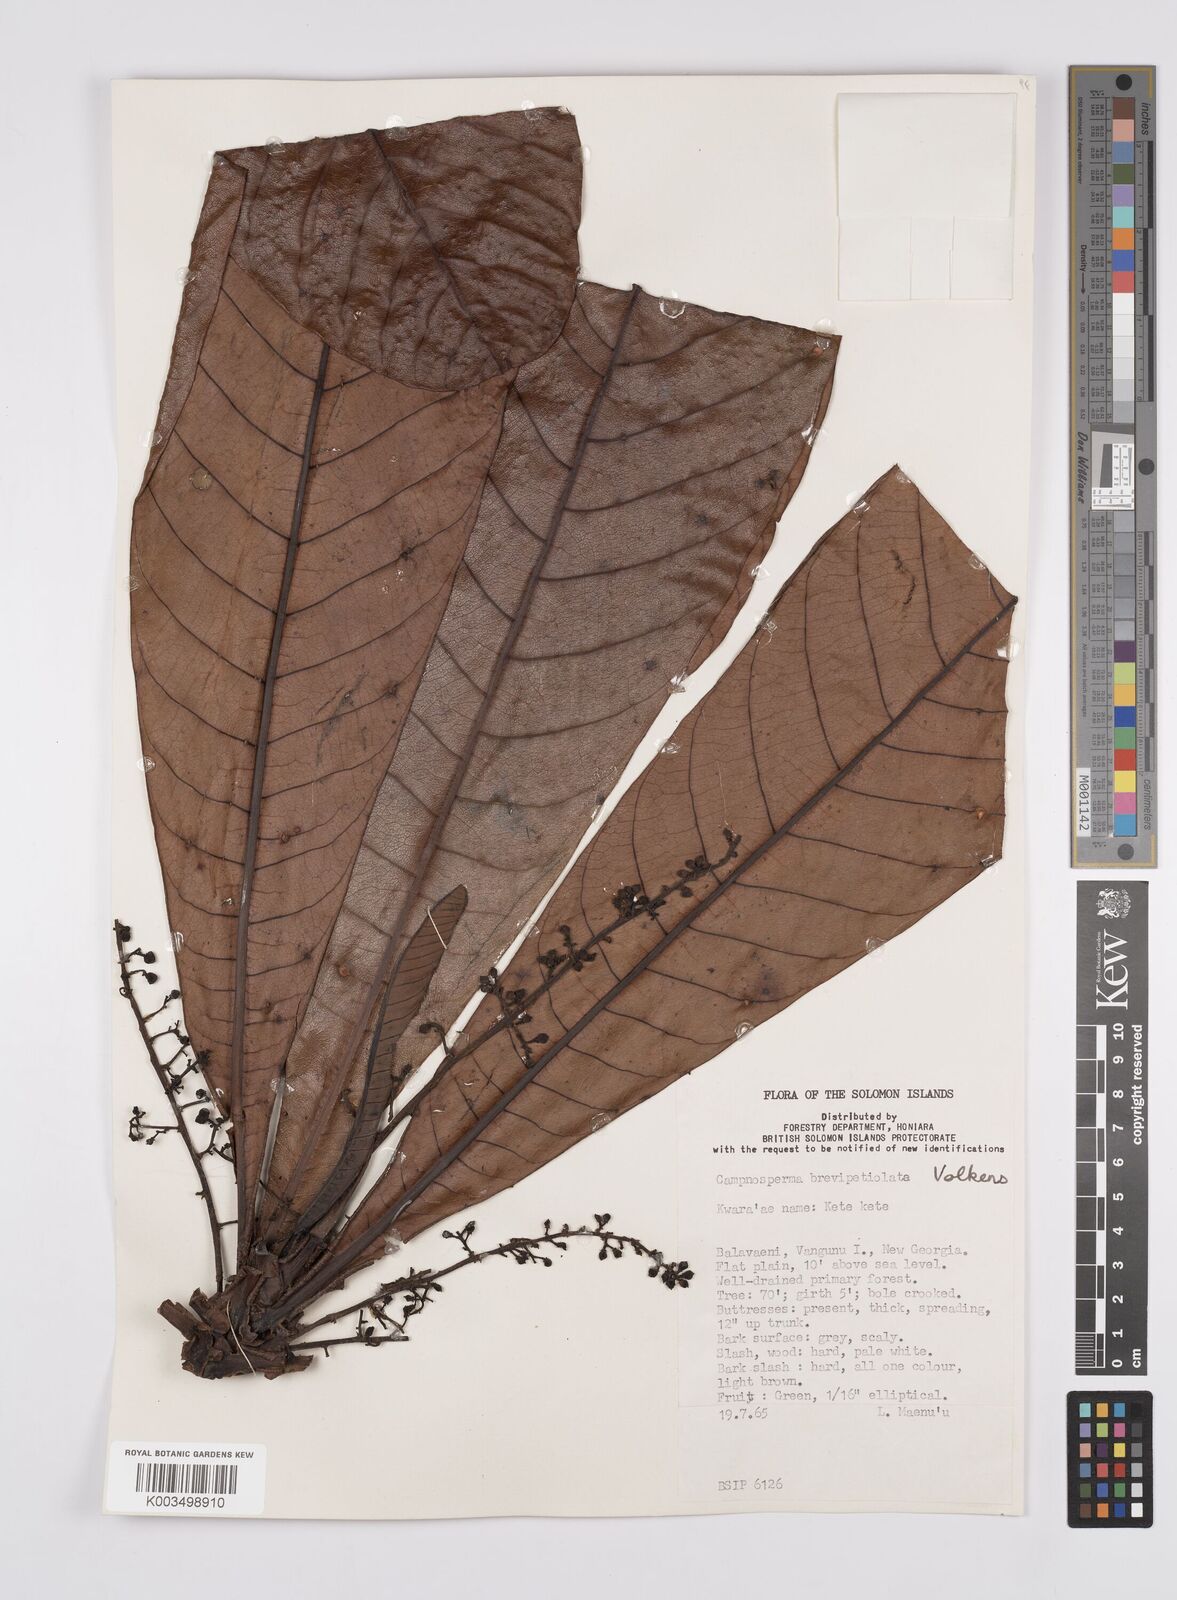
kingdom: Plantae
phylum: Tracheophyta
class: Magnoliopsida
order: Sapindales
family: Anacardiaceae
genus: Campnosperma
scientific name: Campnosperma brevipetiolatum
